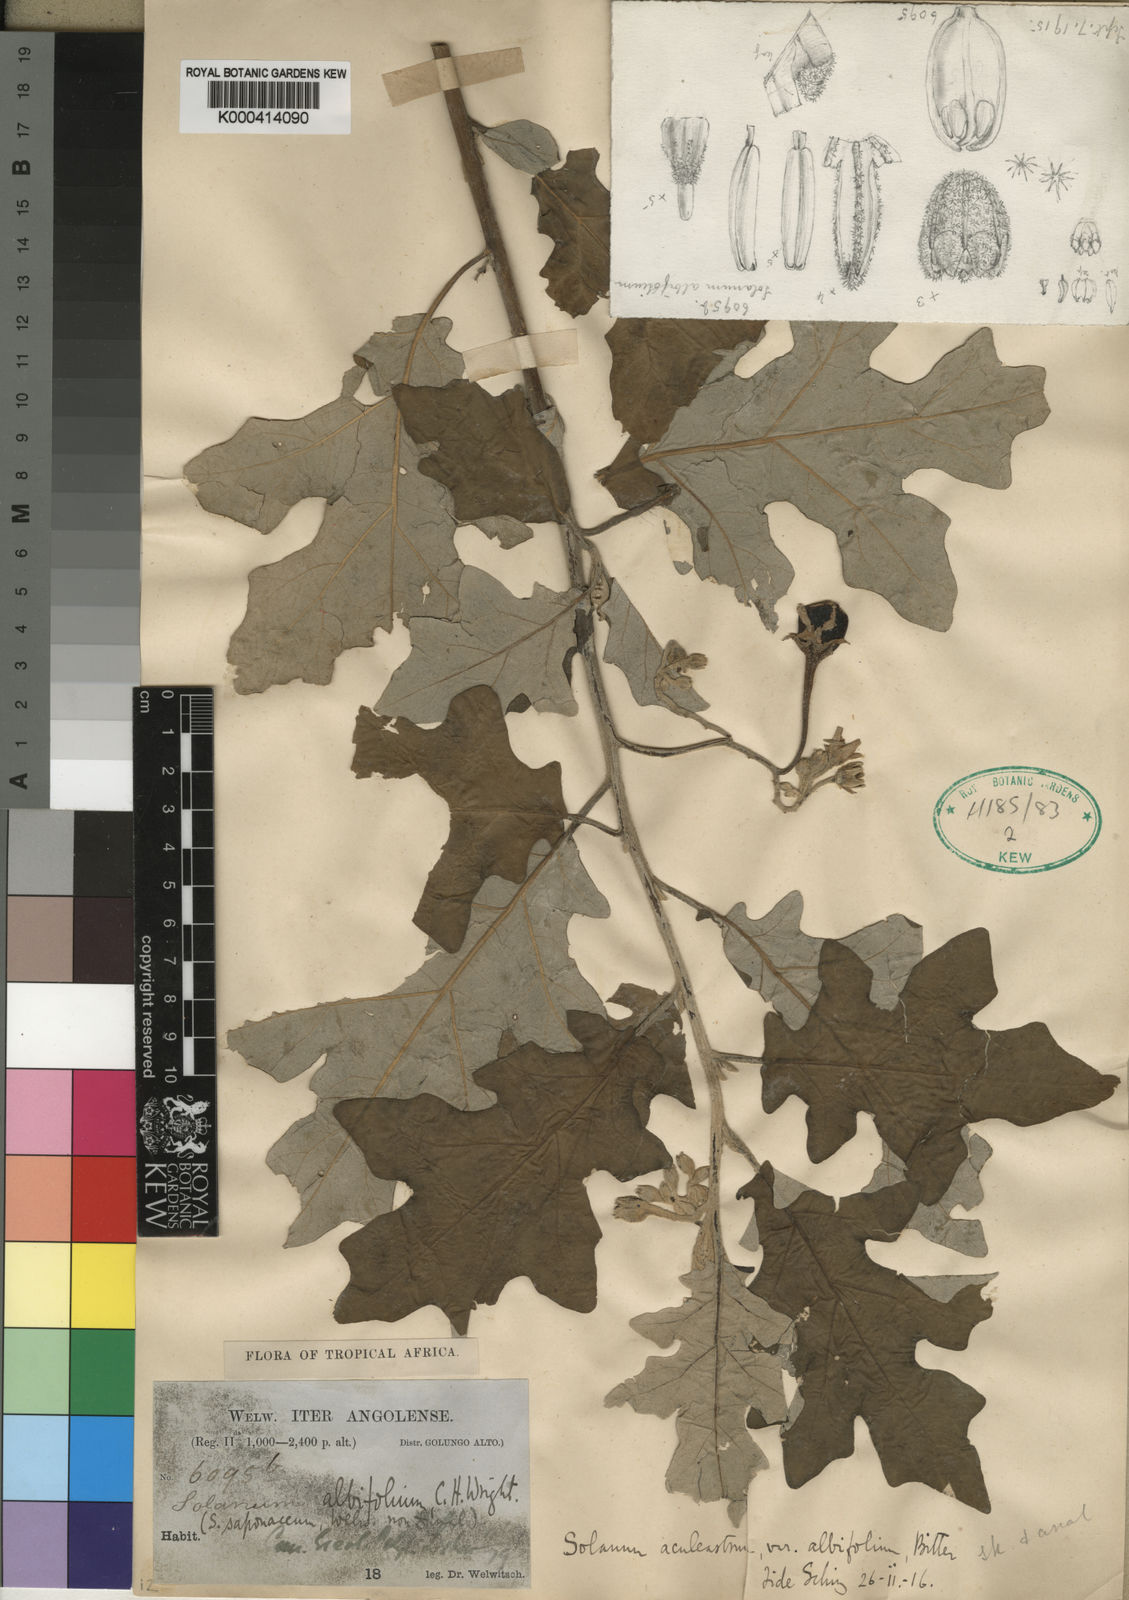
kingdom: Plantae
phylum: Tracheophyta
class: Magnoliopsida
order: Solanales
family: Solanaceae
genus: Solanum
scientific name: Solanum aculeastrum
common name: Goat bitter-apple
